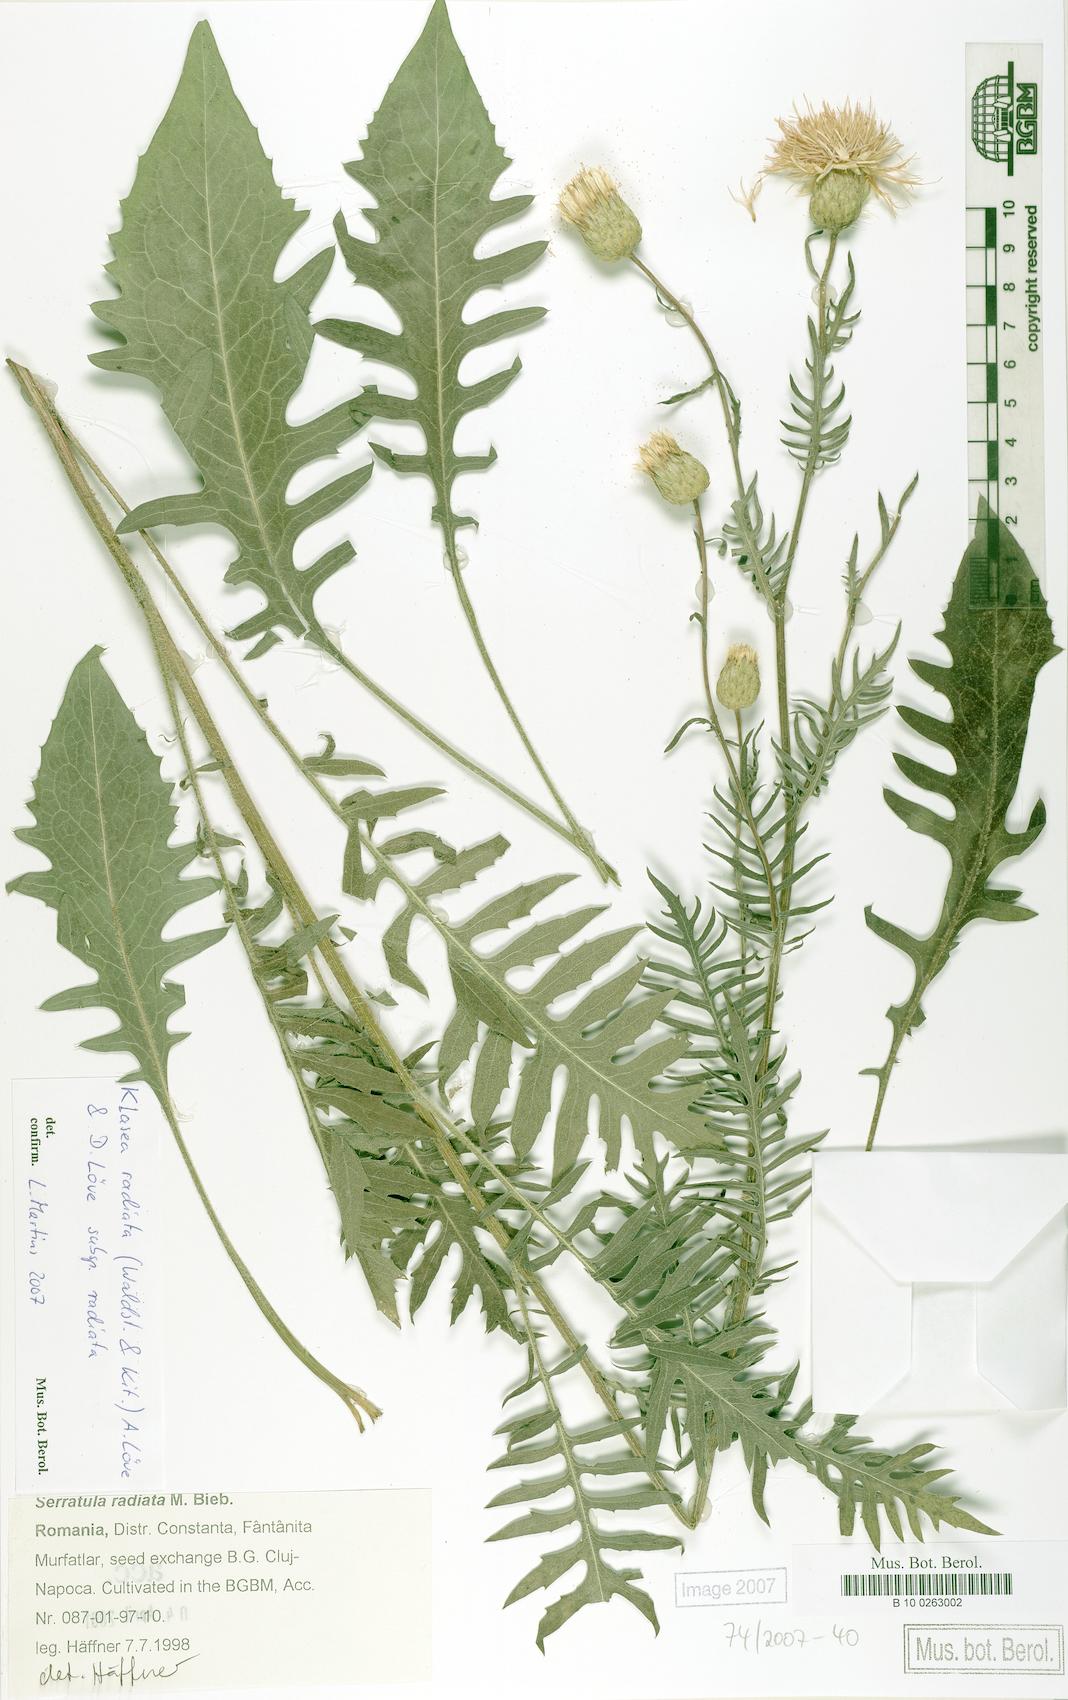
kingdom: Plantae
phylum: Tracheophyta
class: Magnoliopsida
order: Asterales
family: Asteraceae
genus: Klasea
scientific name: Klasea radiata
